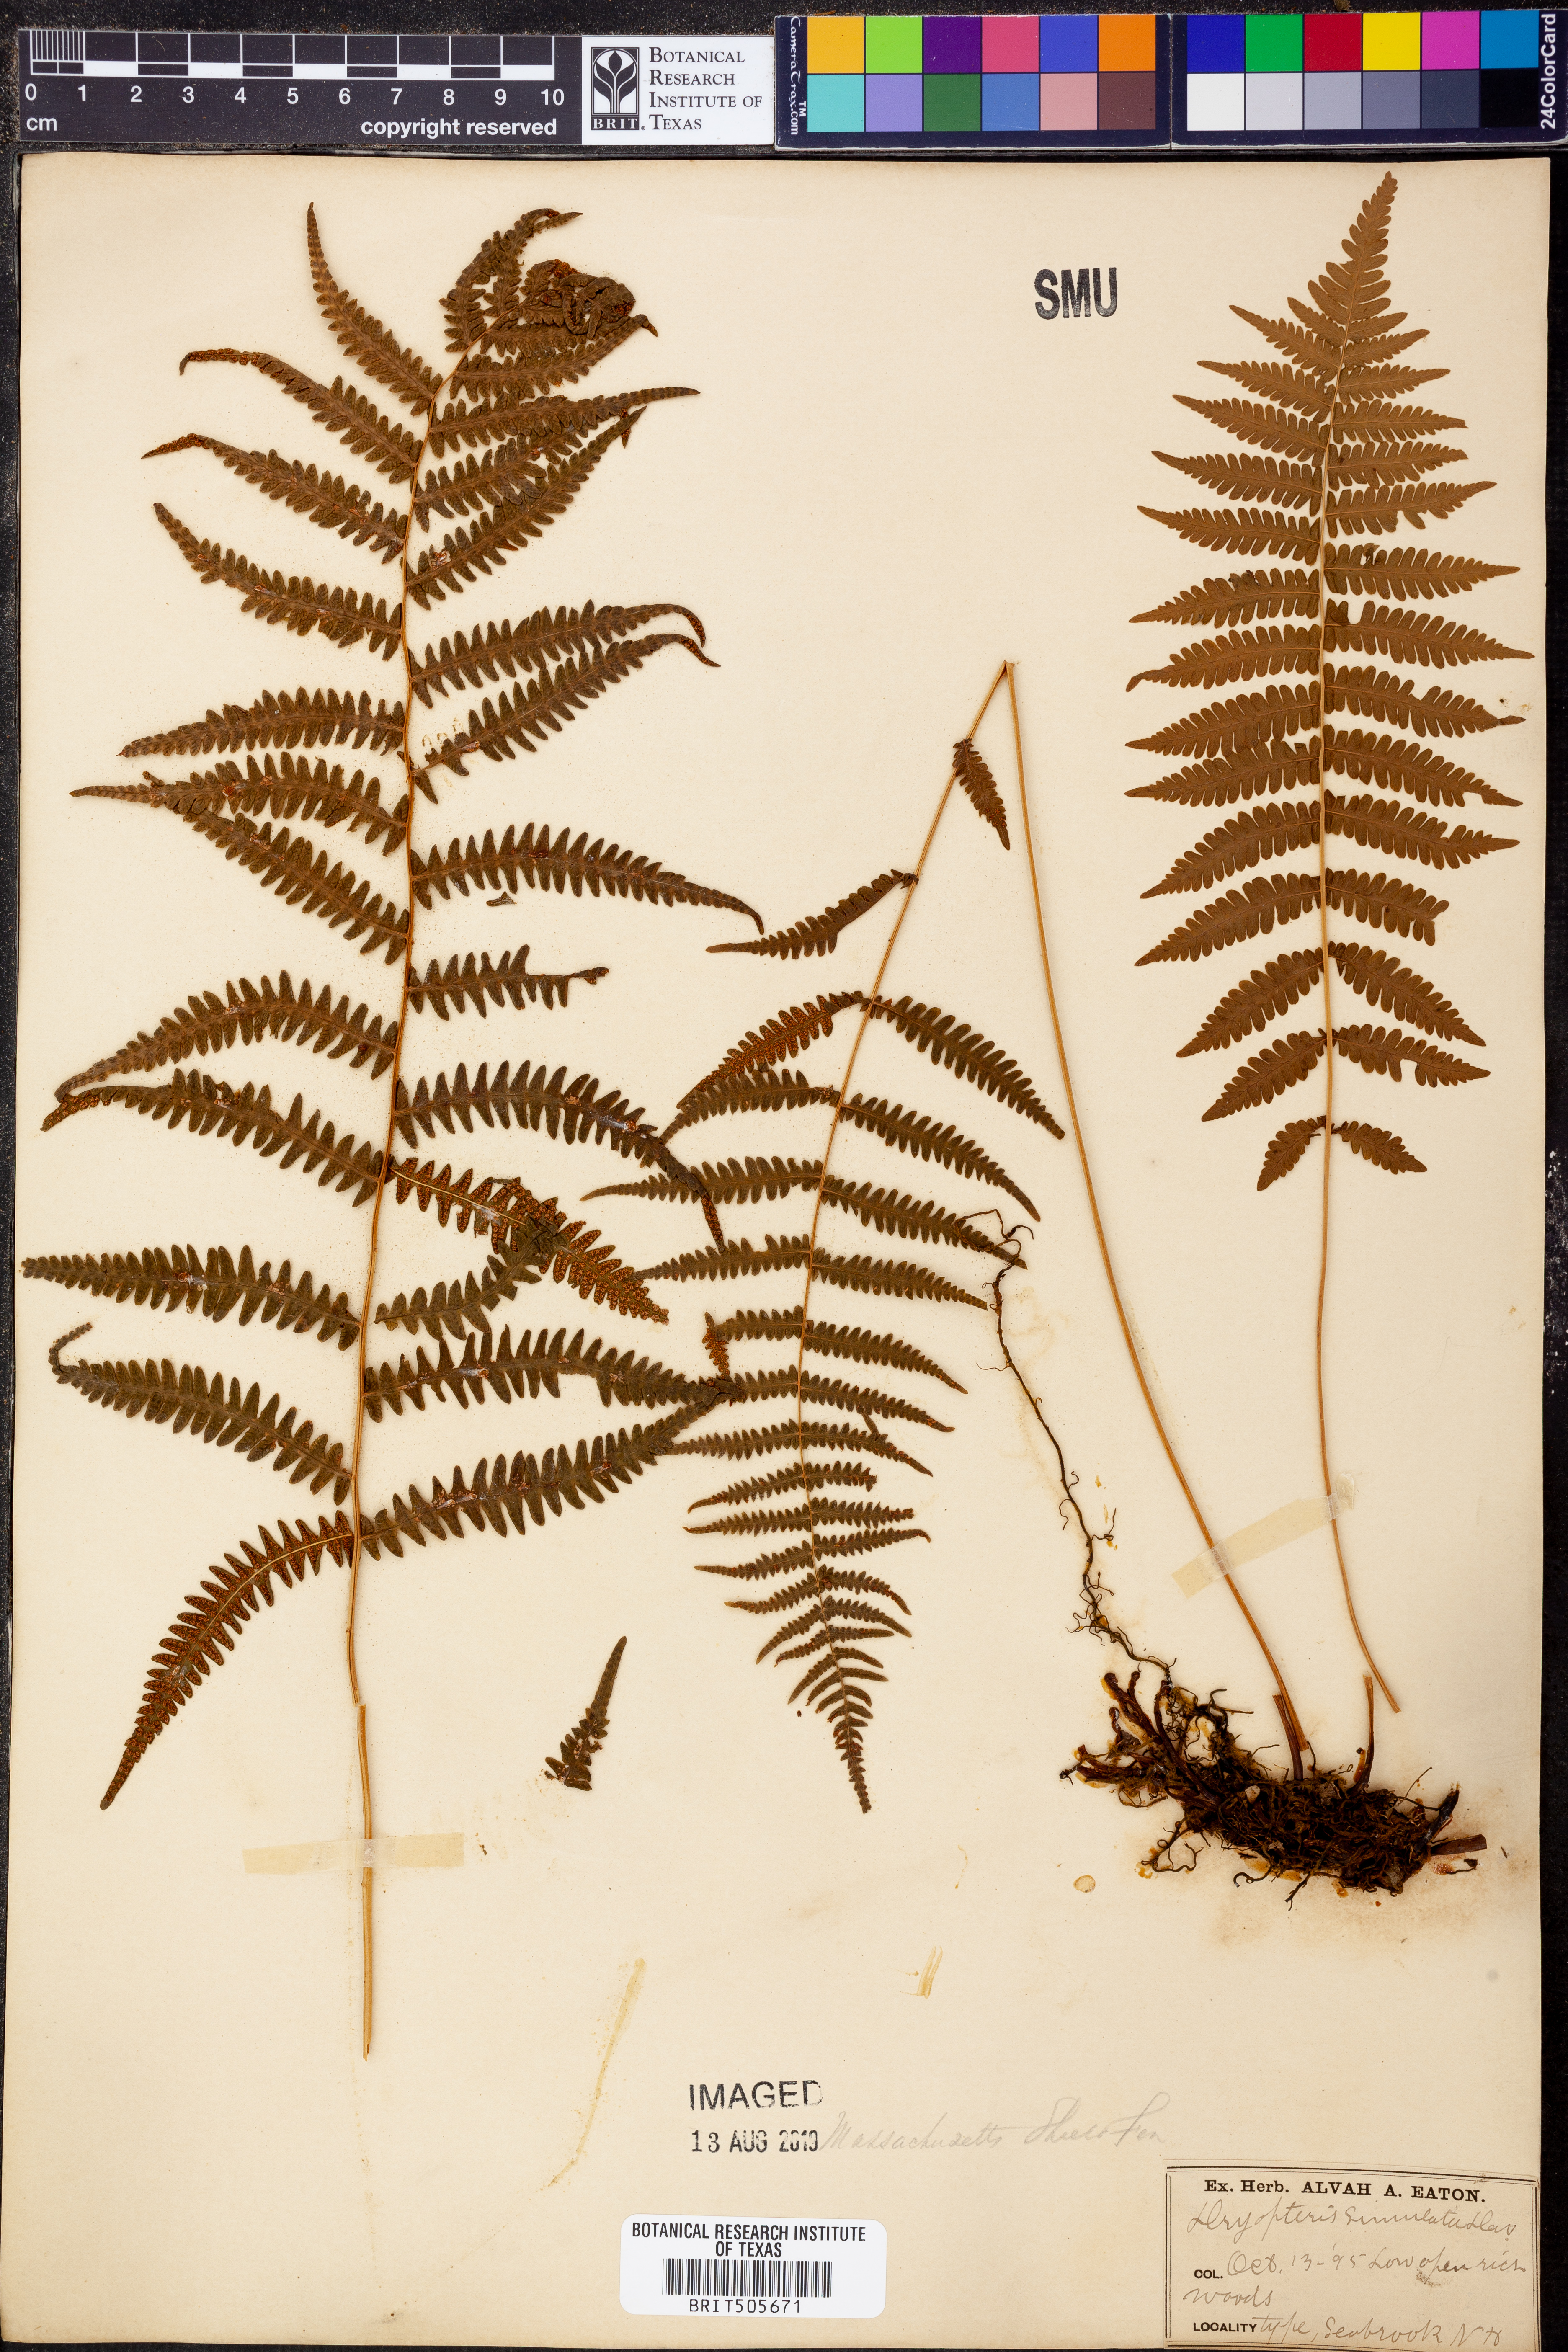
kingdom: Plantae
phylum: Tracheophyta
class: Polypodiopsida
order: Polypodiales
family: Thelypteridaceae
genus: Goniopteris
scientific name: Goniopteris serrulata
